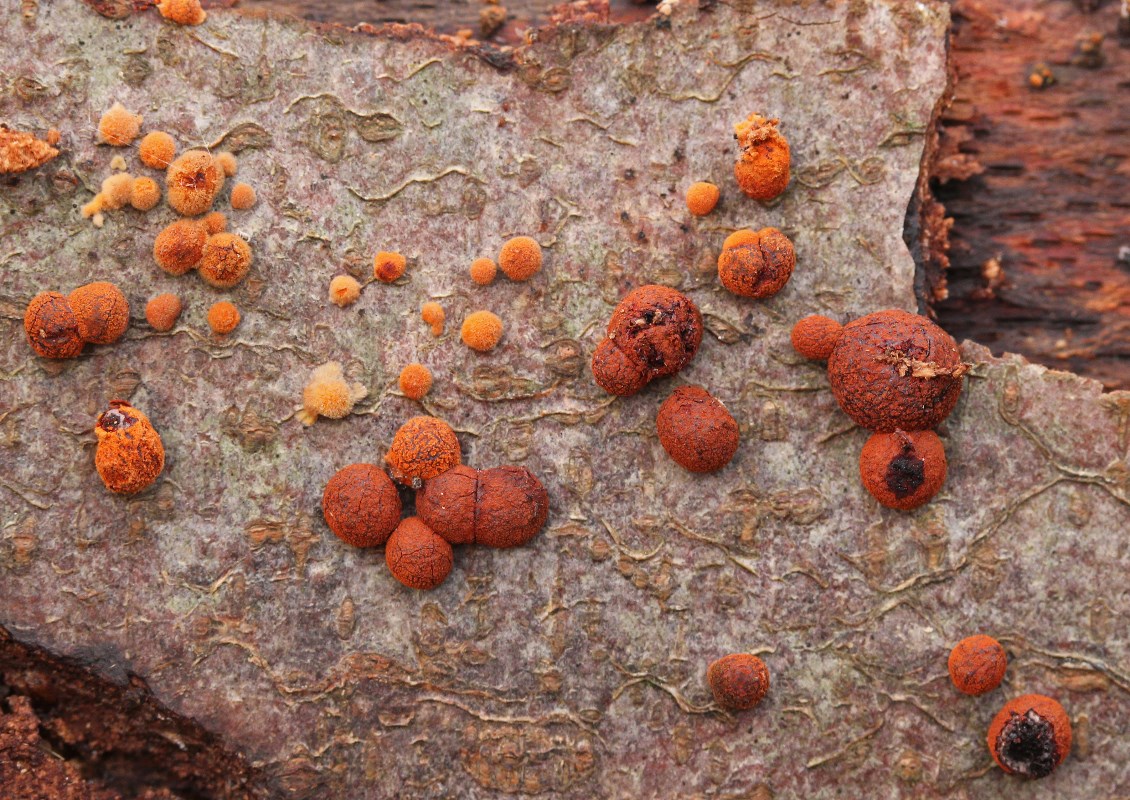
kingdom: Fungi
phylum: Ascomycota
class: Sordariomycetes
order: Xylariales
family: Hypoxylaceae
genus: Hypoxylon
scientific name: Hypoxylon fragiforme
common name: kuljordbær
